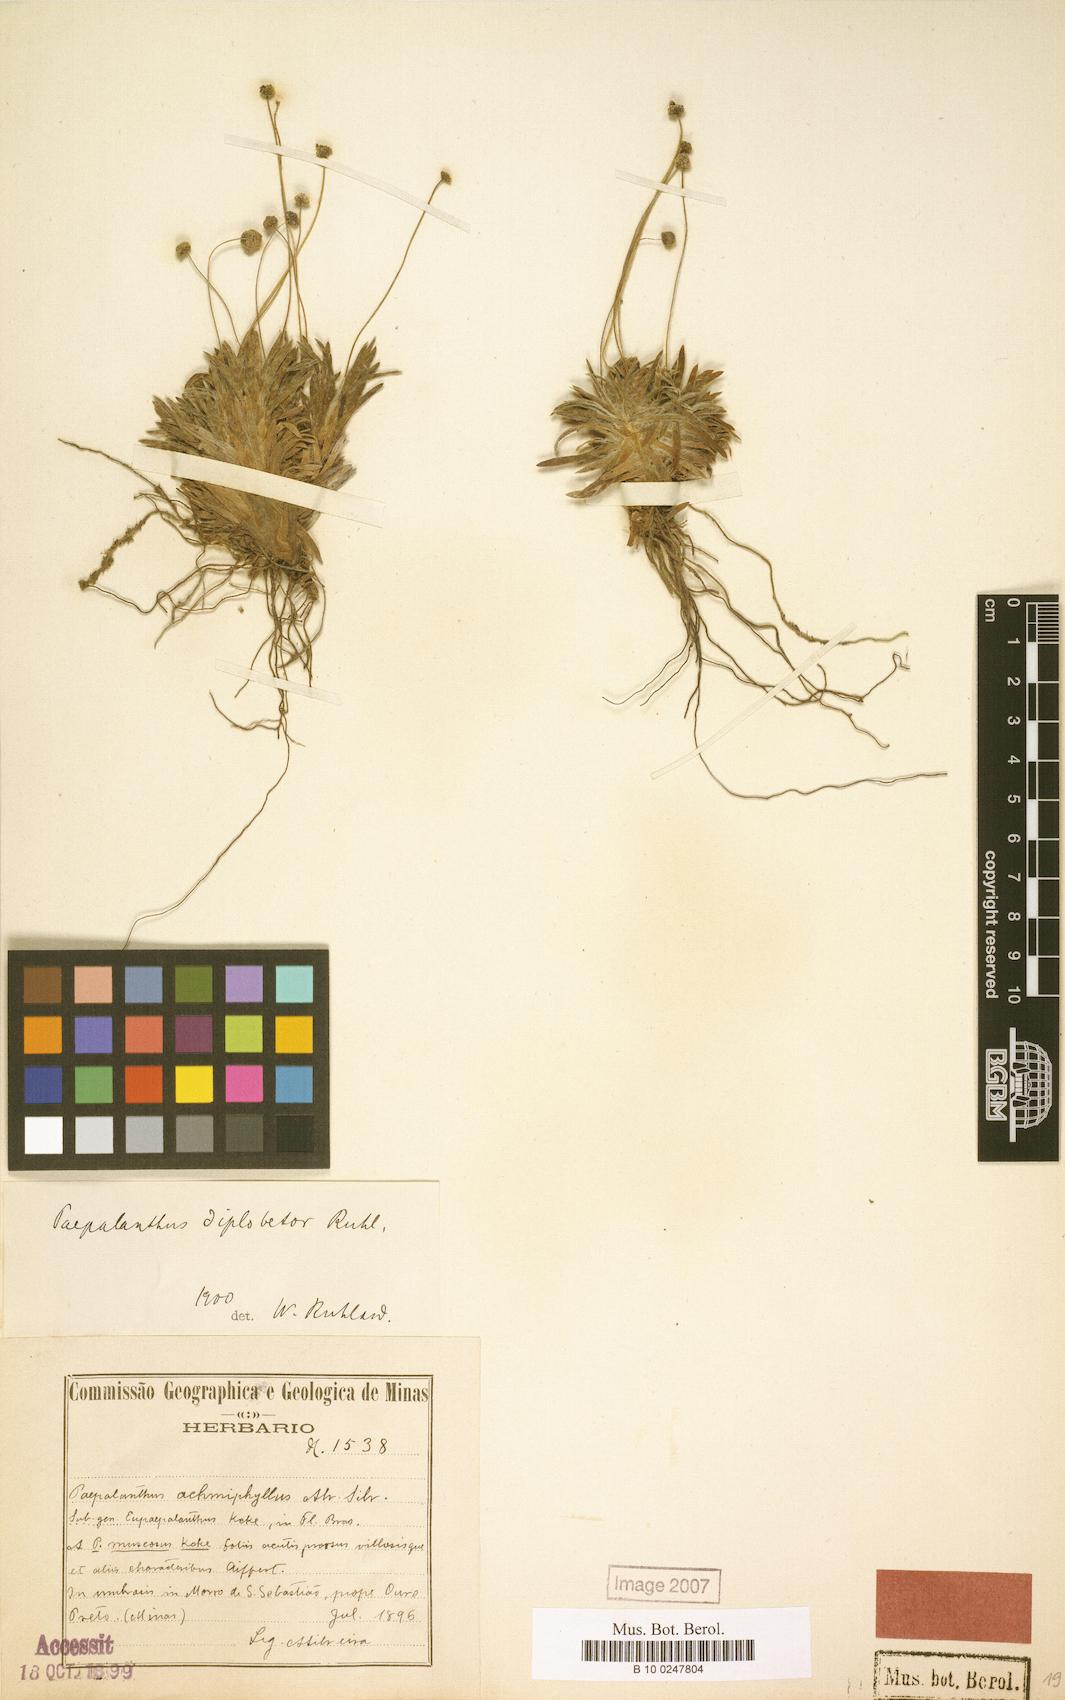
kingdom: Plantae
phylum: Tracheophyta
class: Liliopsida
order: Poales
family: Eriocaulaceae
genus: Paepalanthus
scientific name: Paepalanthus diplobetor
